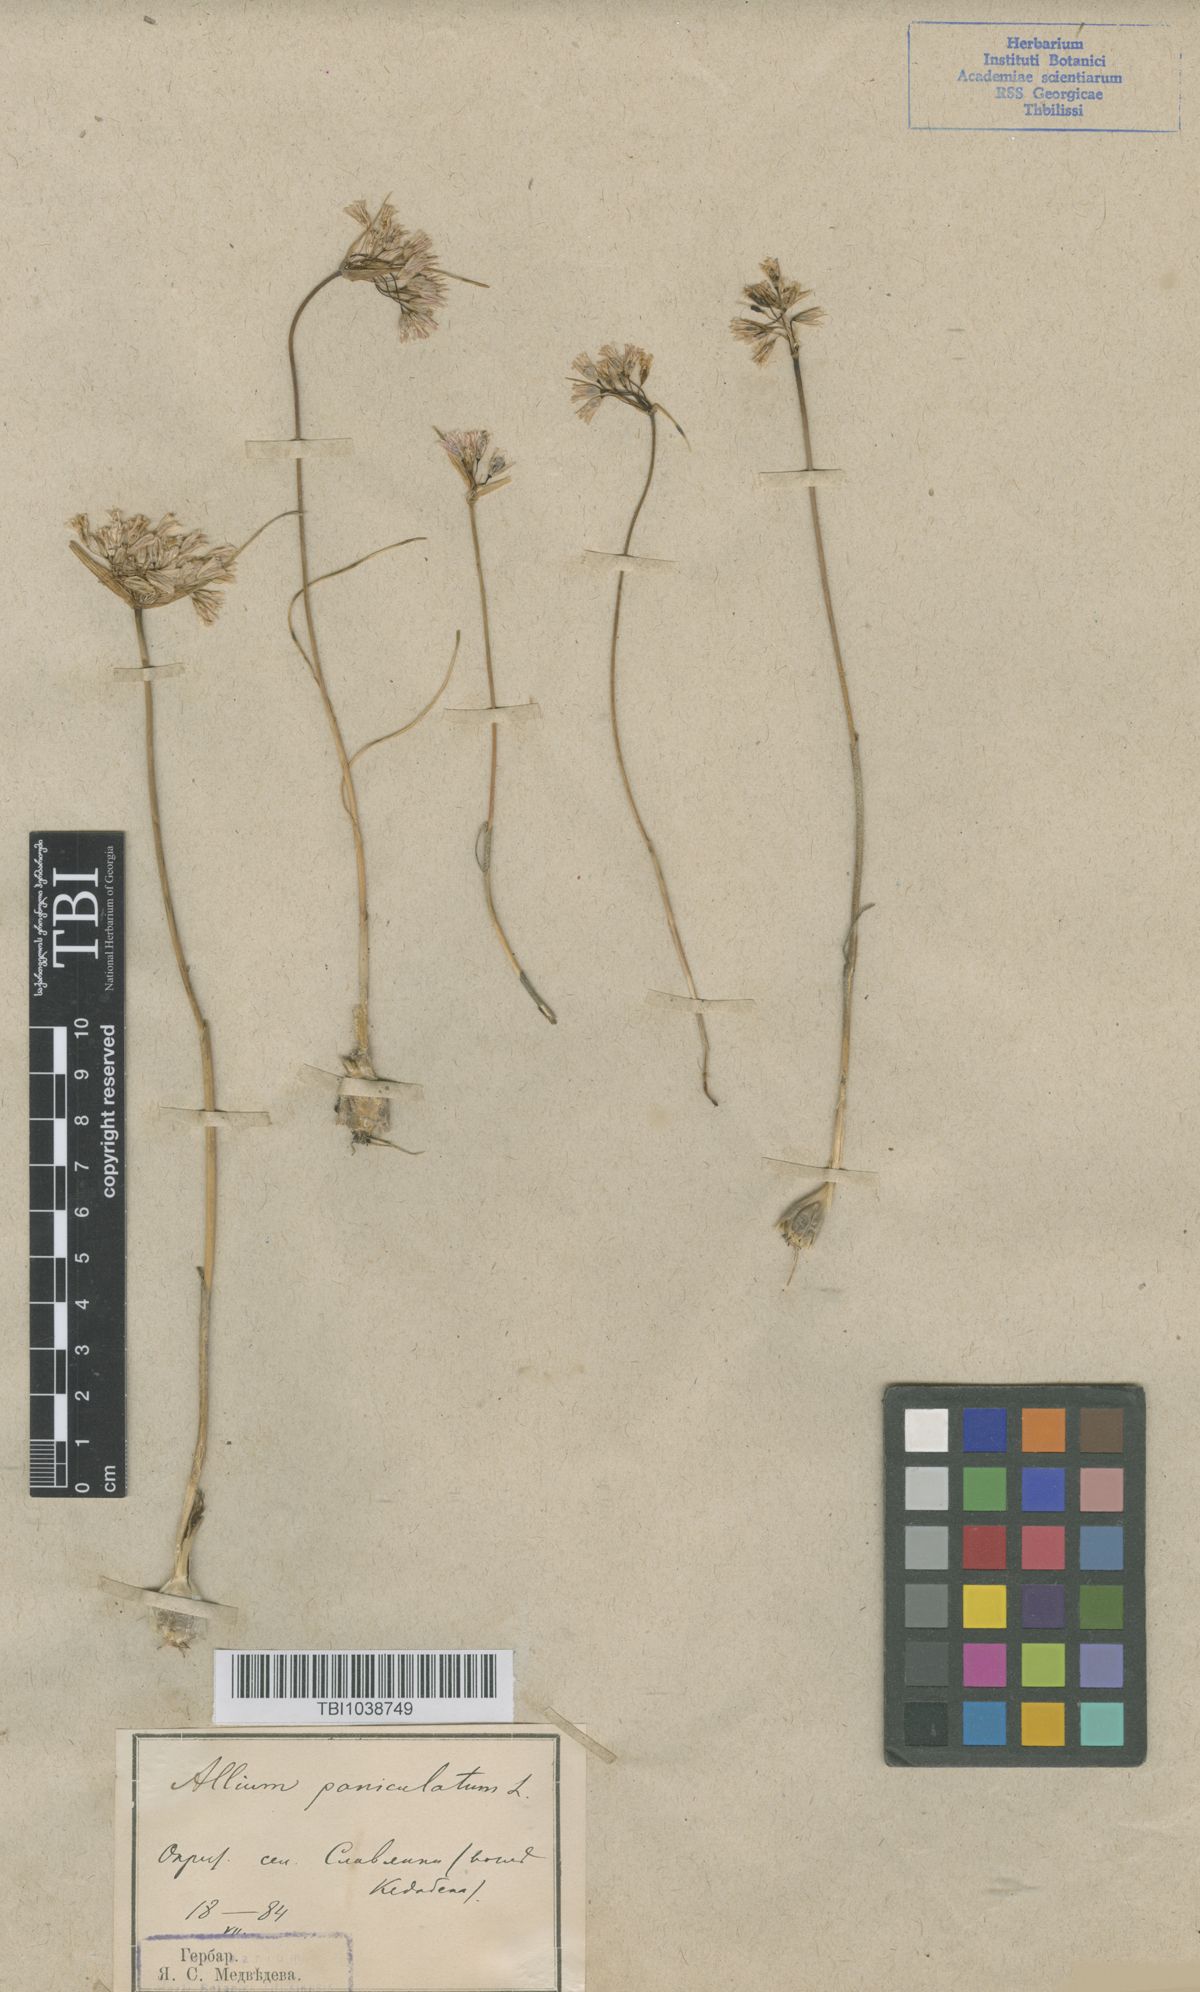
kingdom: Plantae
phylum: Tracheophyta
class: Liliopsida
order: Asparagales
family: Amaryllidaceae
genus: Allium
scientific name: Allium kunthianum
